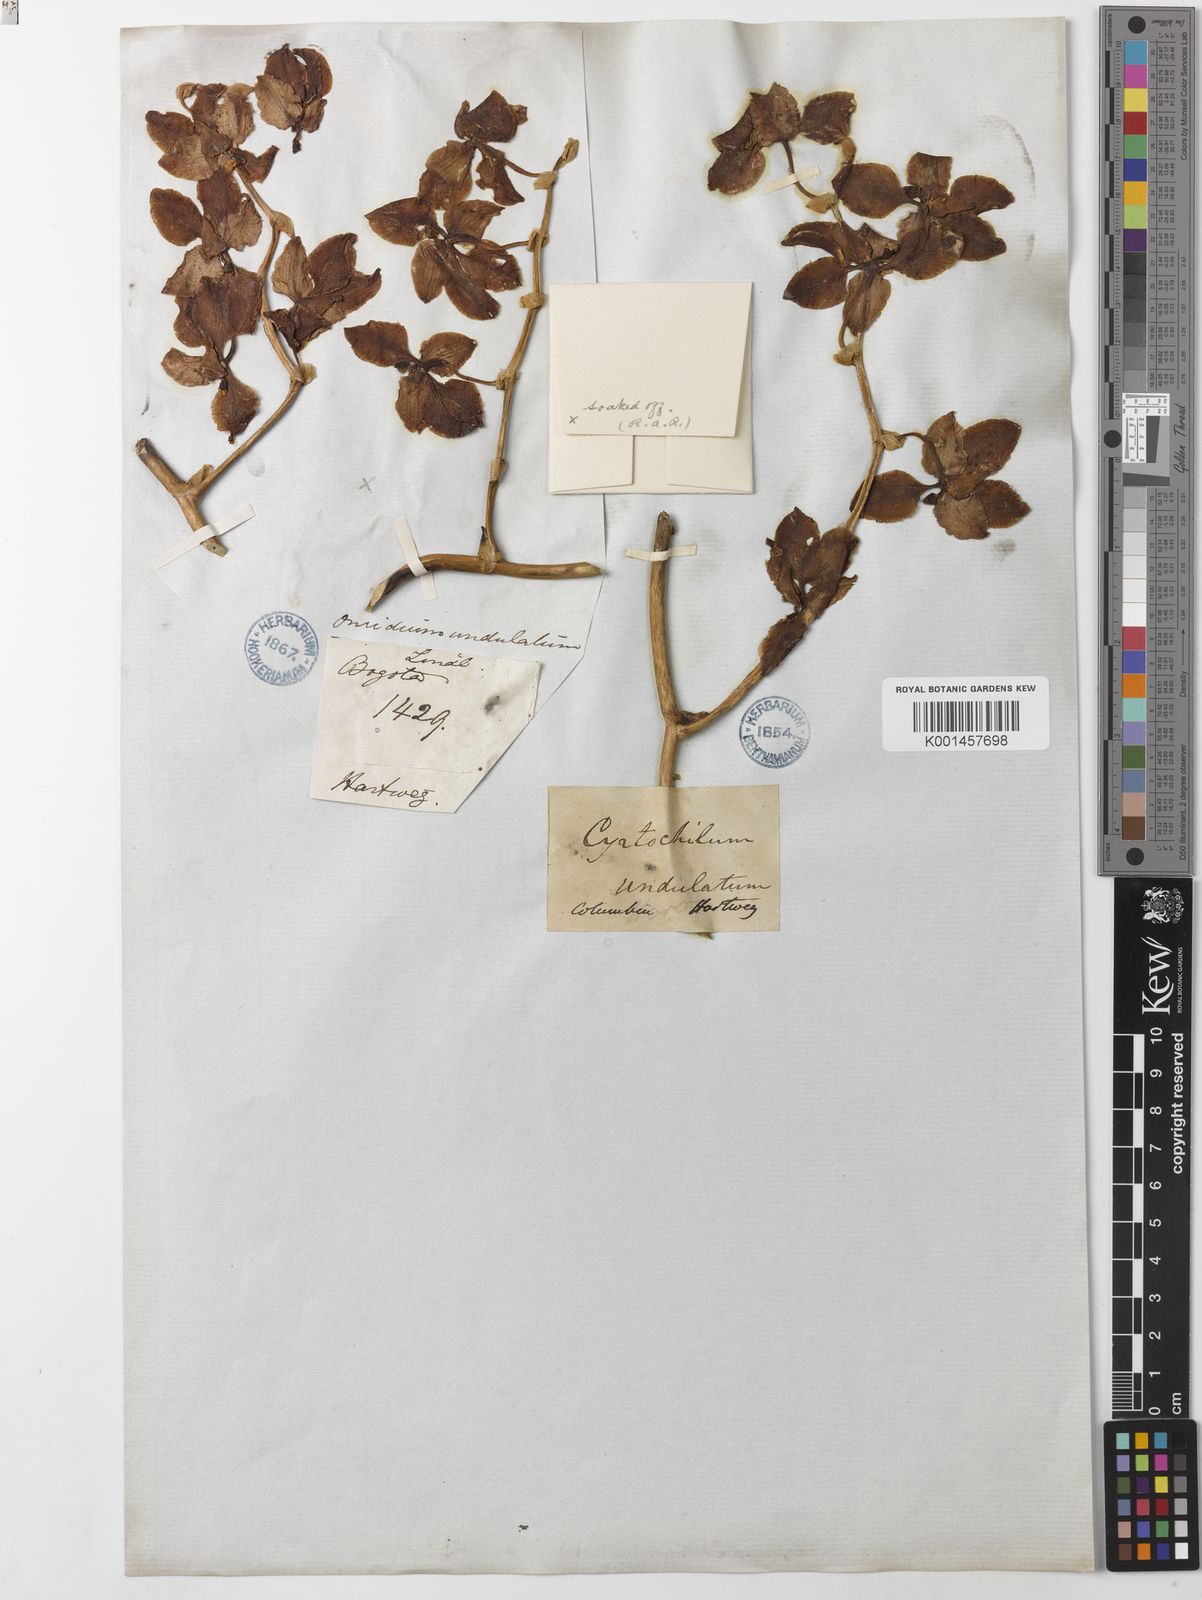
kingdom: Plantae
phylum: Tracheophyta
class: Liliopsida
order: Asparagales
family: Orchidaceae
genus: Cyrtochilum
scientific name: Cyrtochilum
